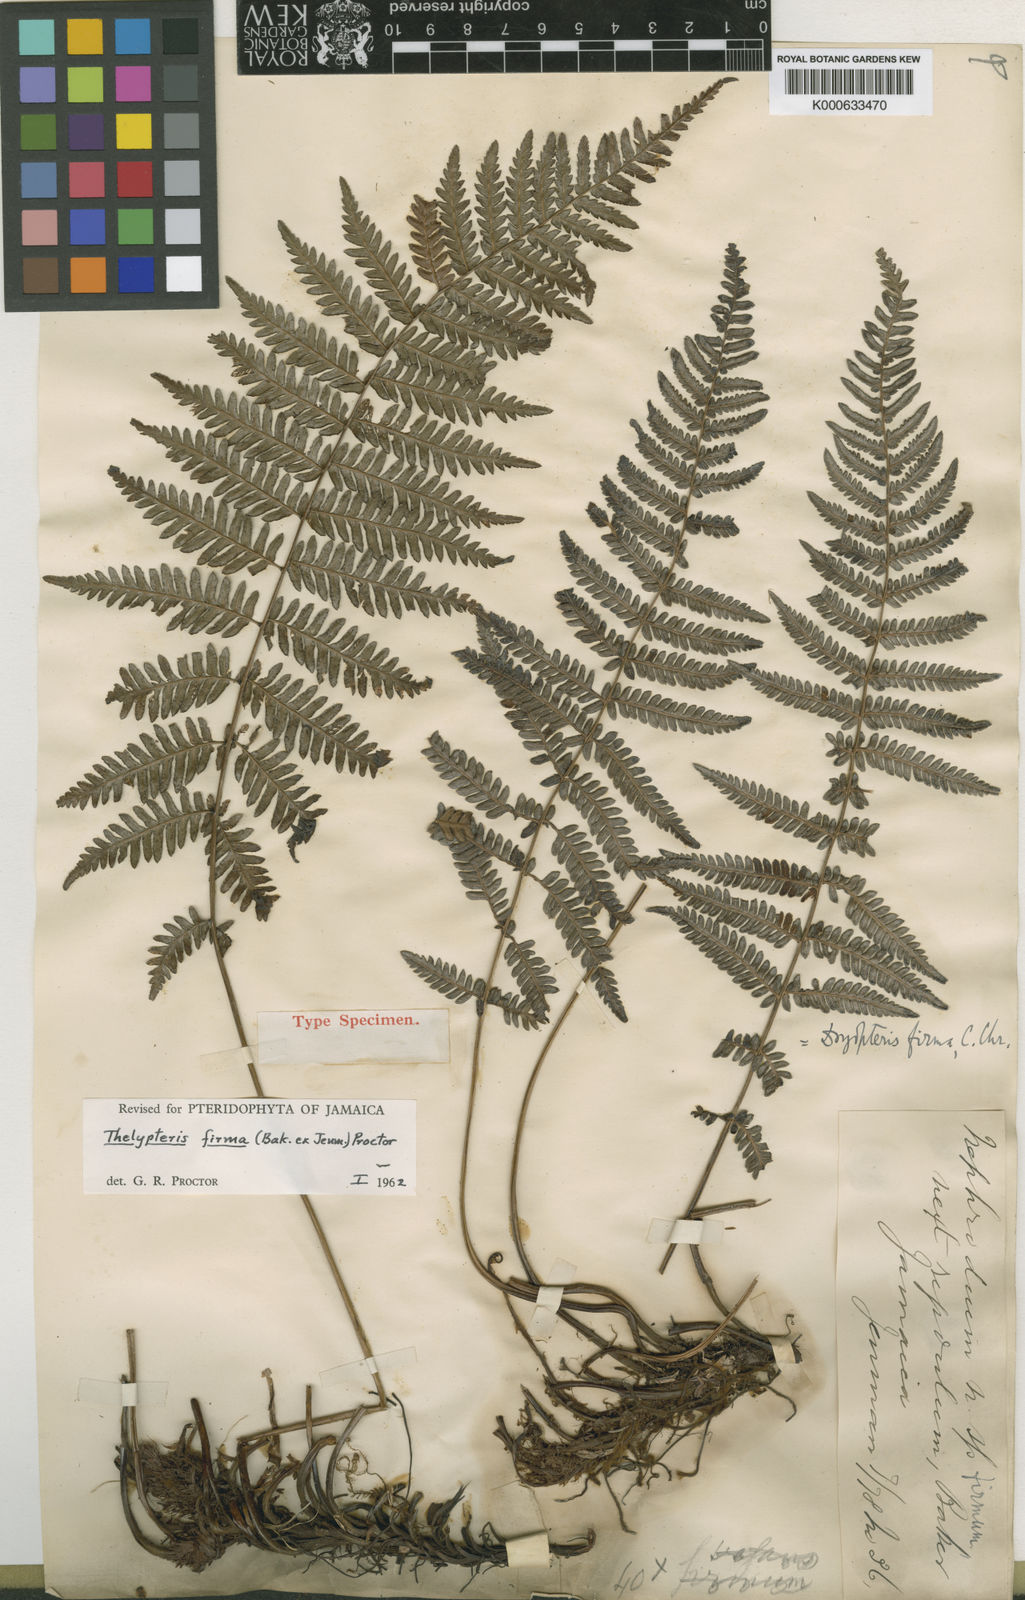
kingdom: Plantae
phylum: Tracheophyta
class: Polypodiopsida
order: Polypodiales
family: Thelypteridaceae
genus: Amauropelta
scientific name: Amauropelta firma
